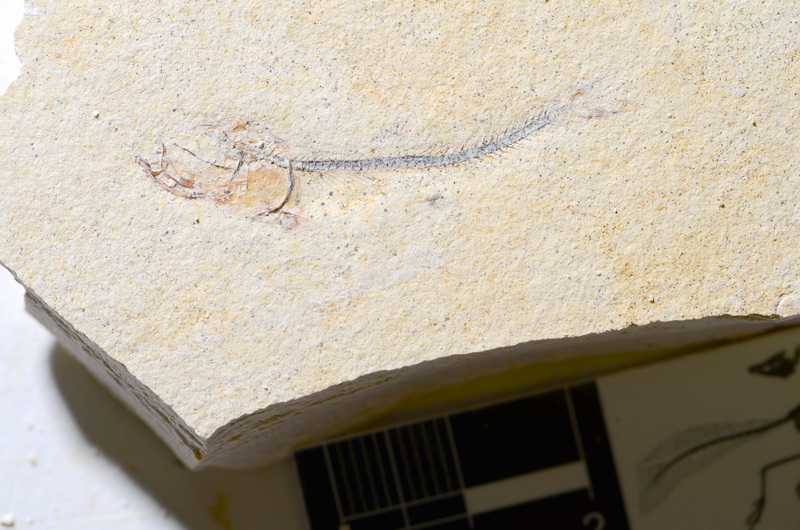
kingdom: Animalia
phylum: Chordata
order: Salmoniformes
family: Orthogonikleithridae
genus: Orthogonikleithrus
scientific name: Orthogonikleithrus hoelli
